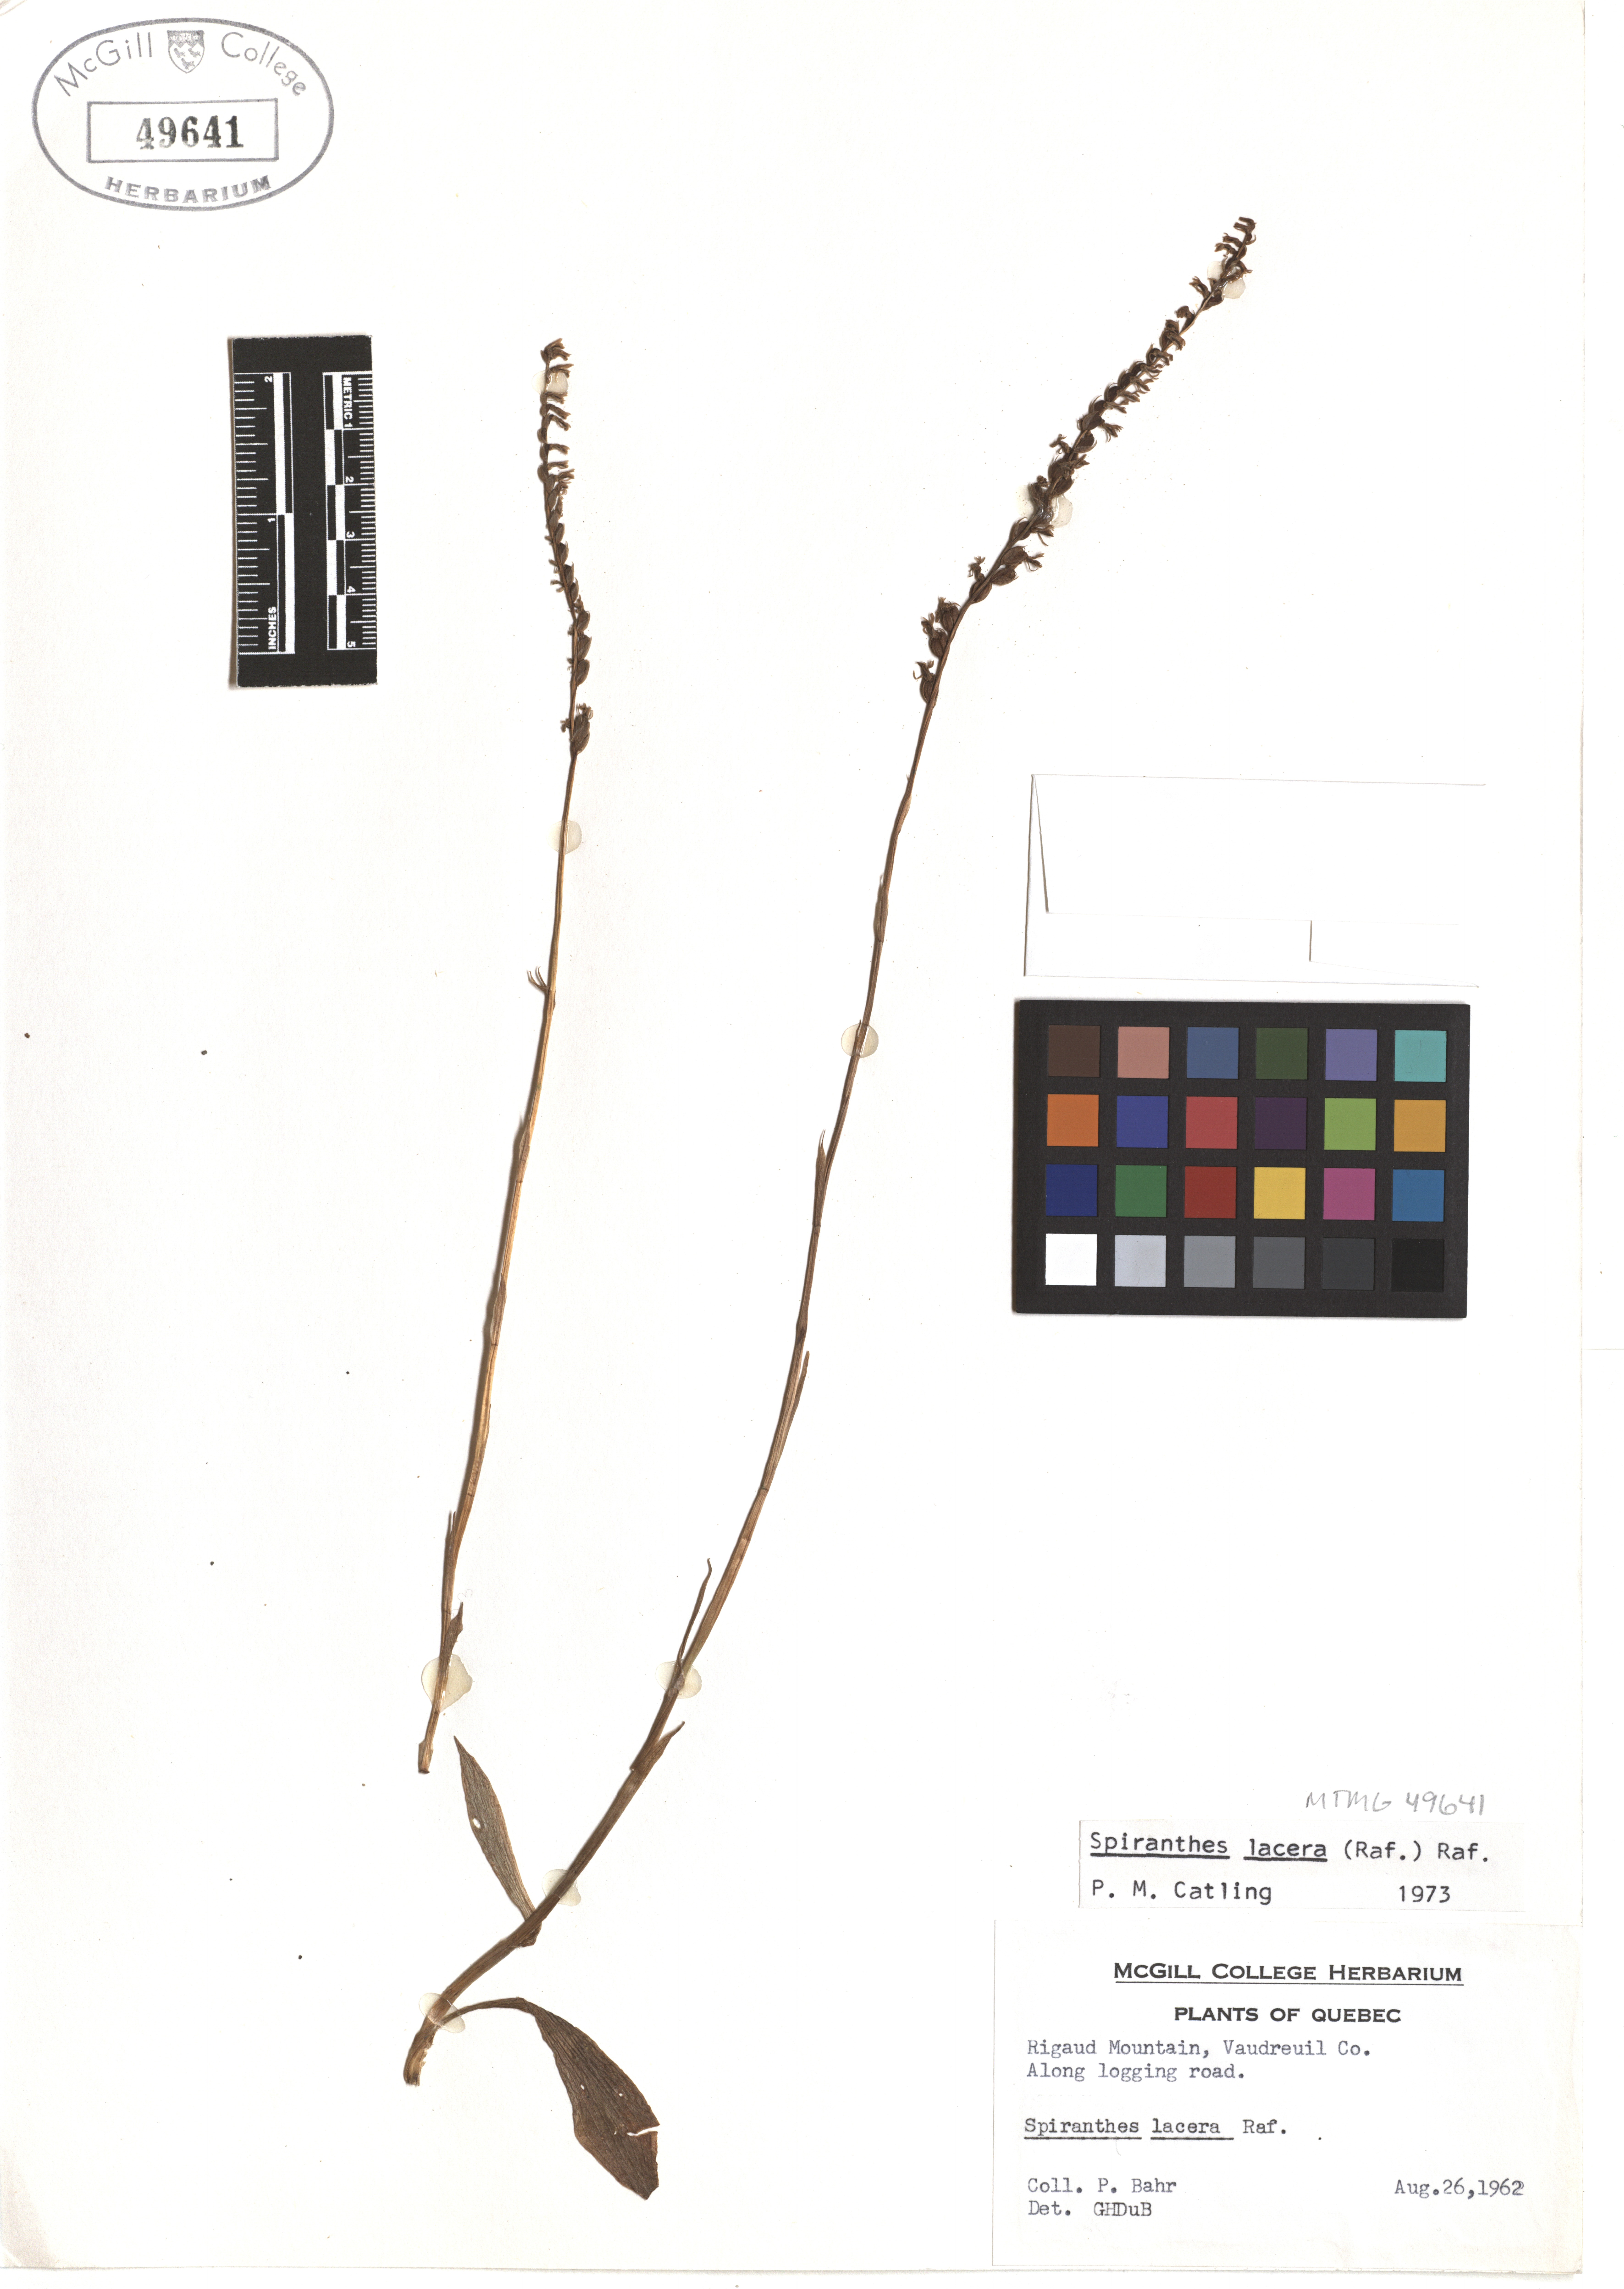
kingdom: Plantae
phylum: Tracheophyta
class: Liliopsida
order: Asparagales
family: Orchidaceae
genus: Spiranthes
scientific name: Spiranthes lacera
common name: Northern slender ladies'-tresses
